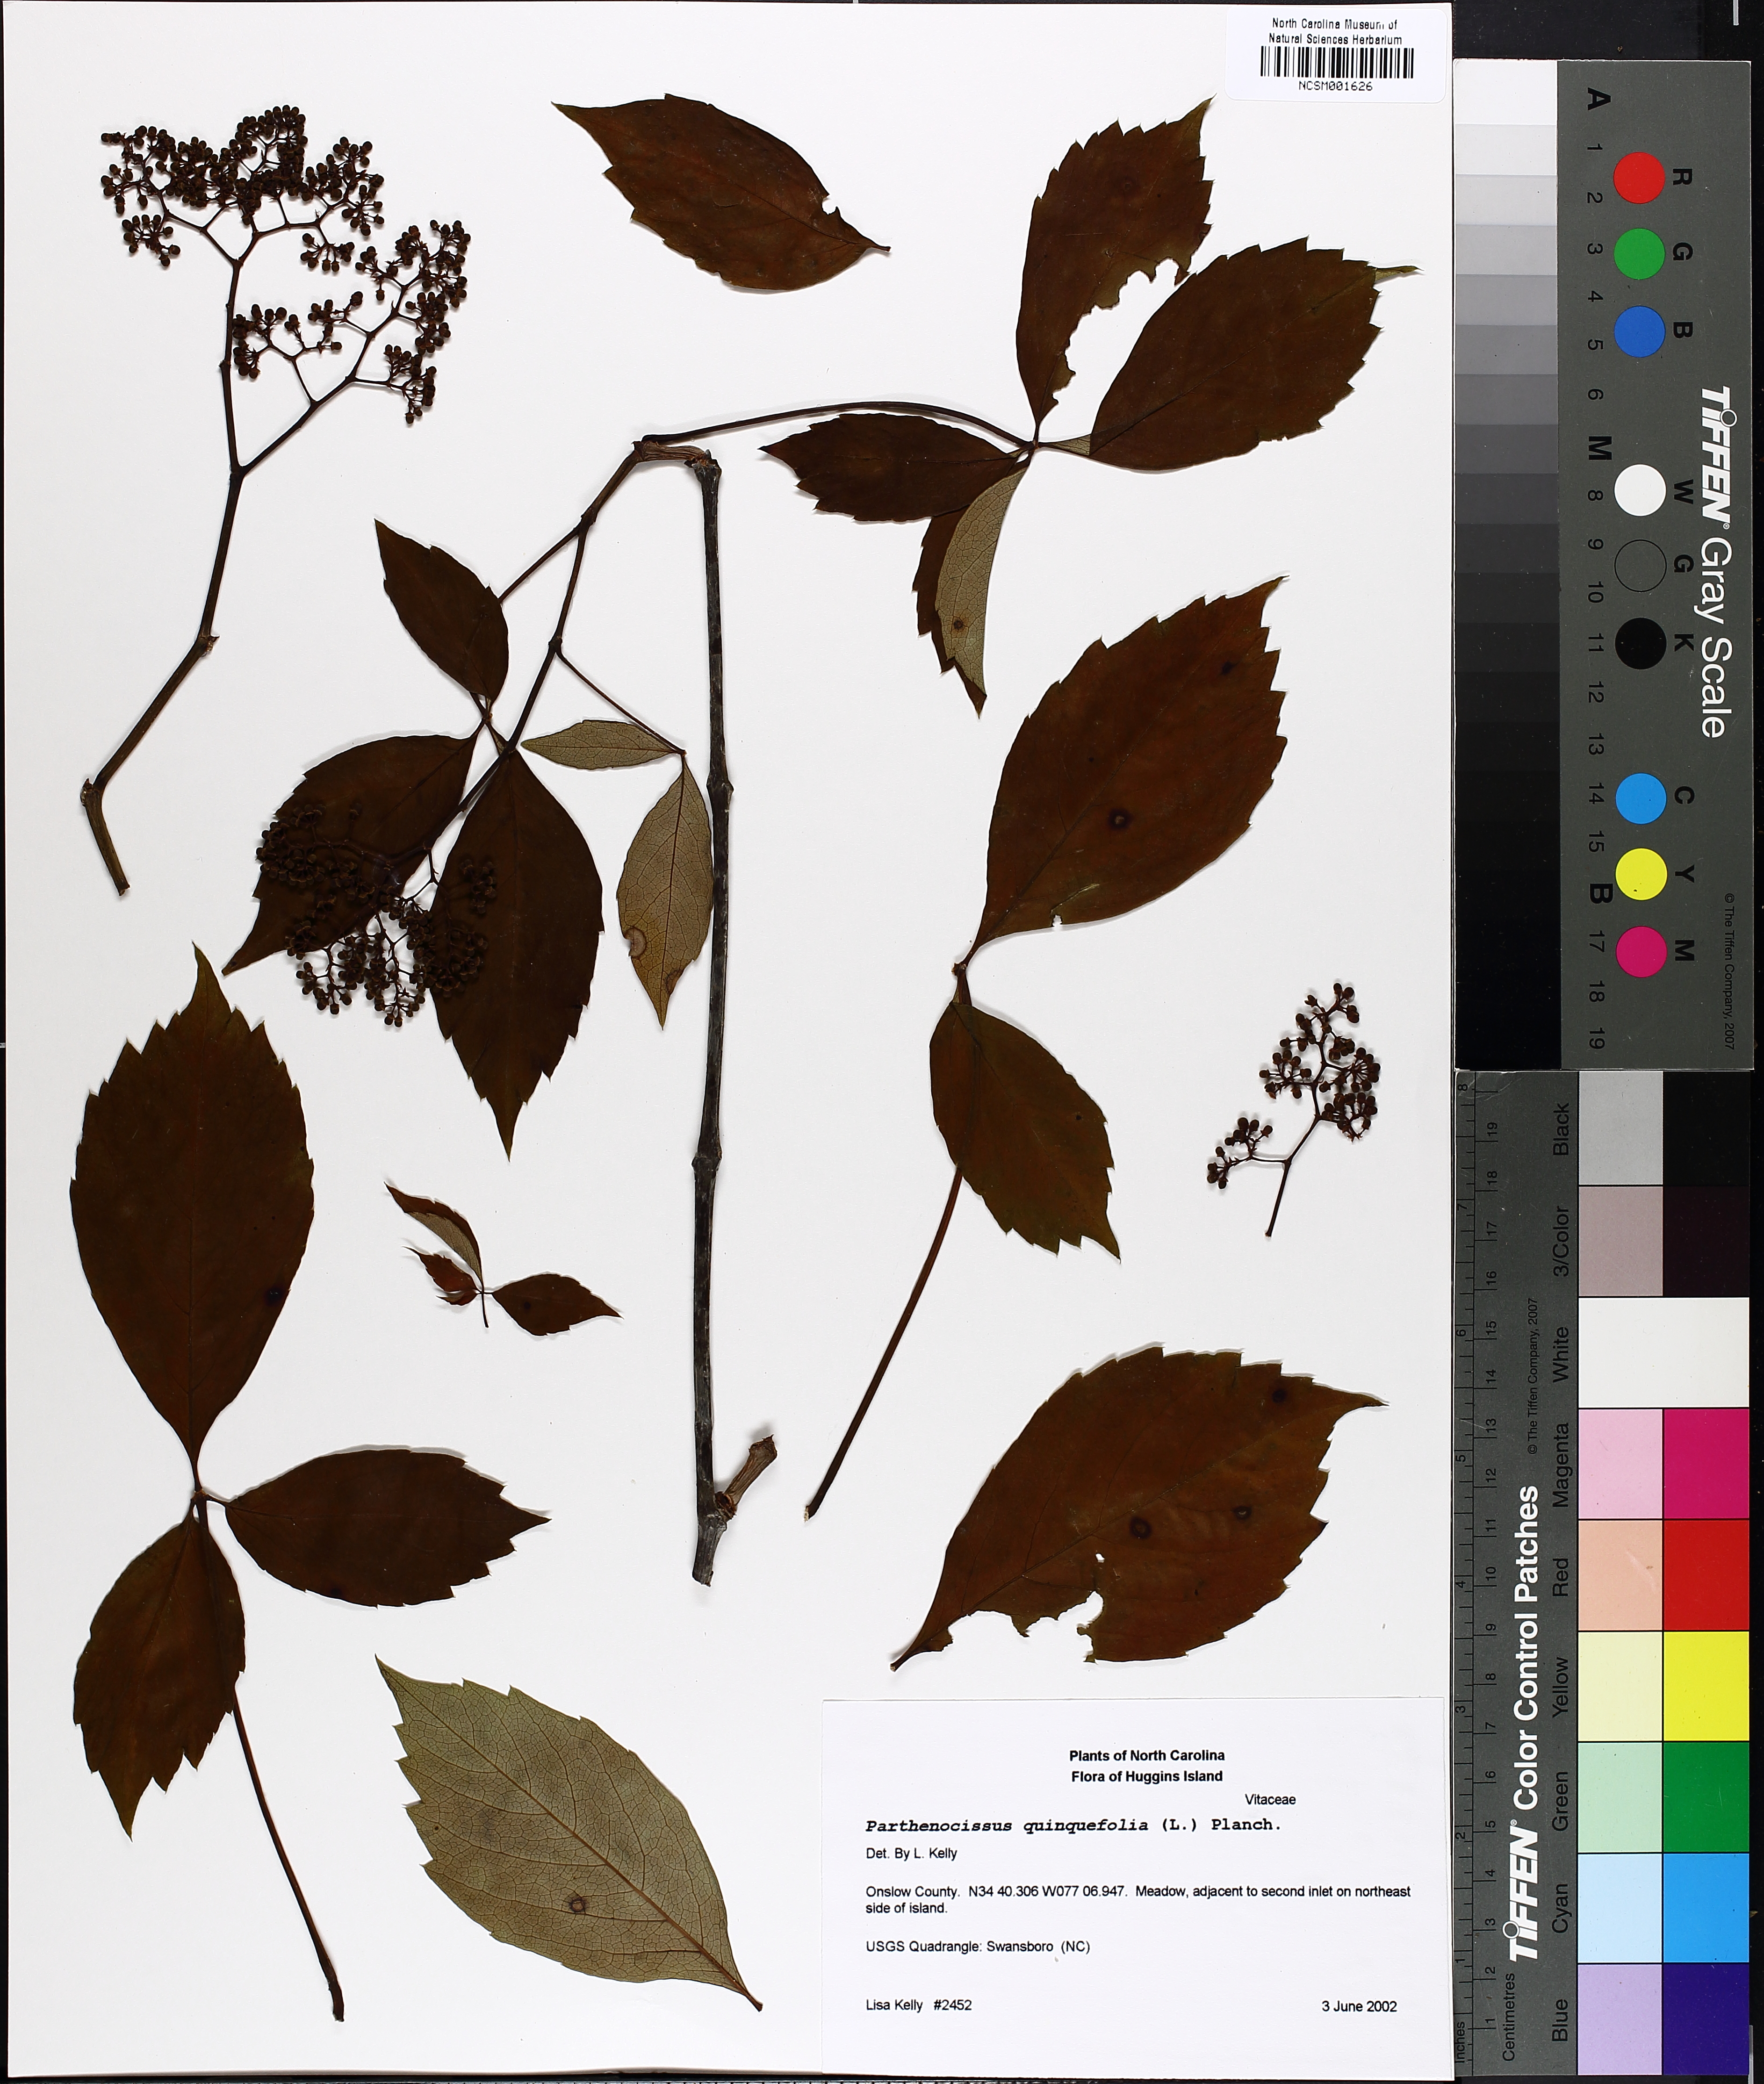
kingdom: Plantae
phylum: Tracheophyta
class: Magnoliopsida
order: Vitales
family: Vitaceae
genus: Parthenocissus
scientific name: Parthenocissus quinquefolia
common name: Virginia-creeper
